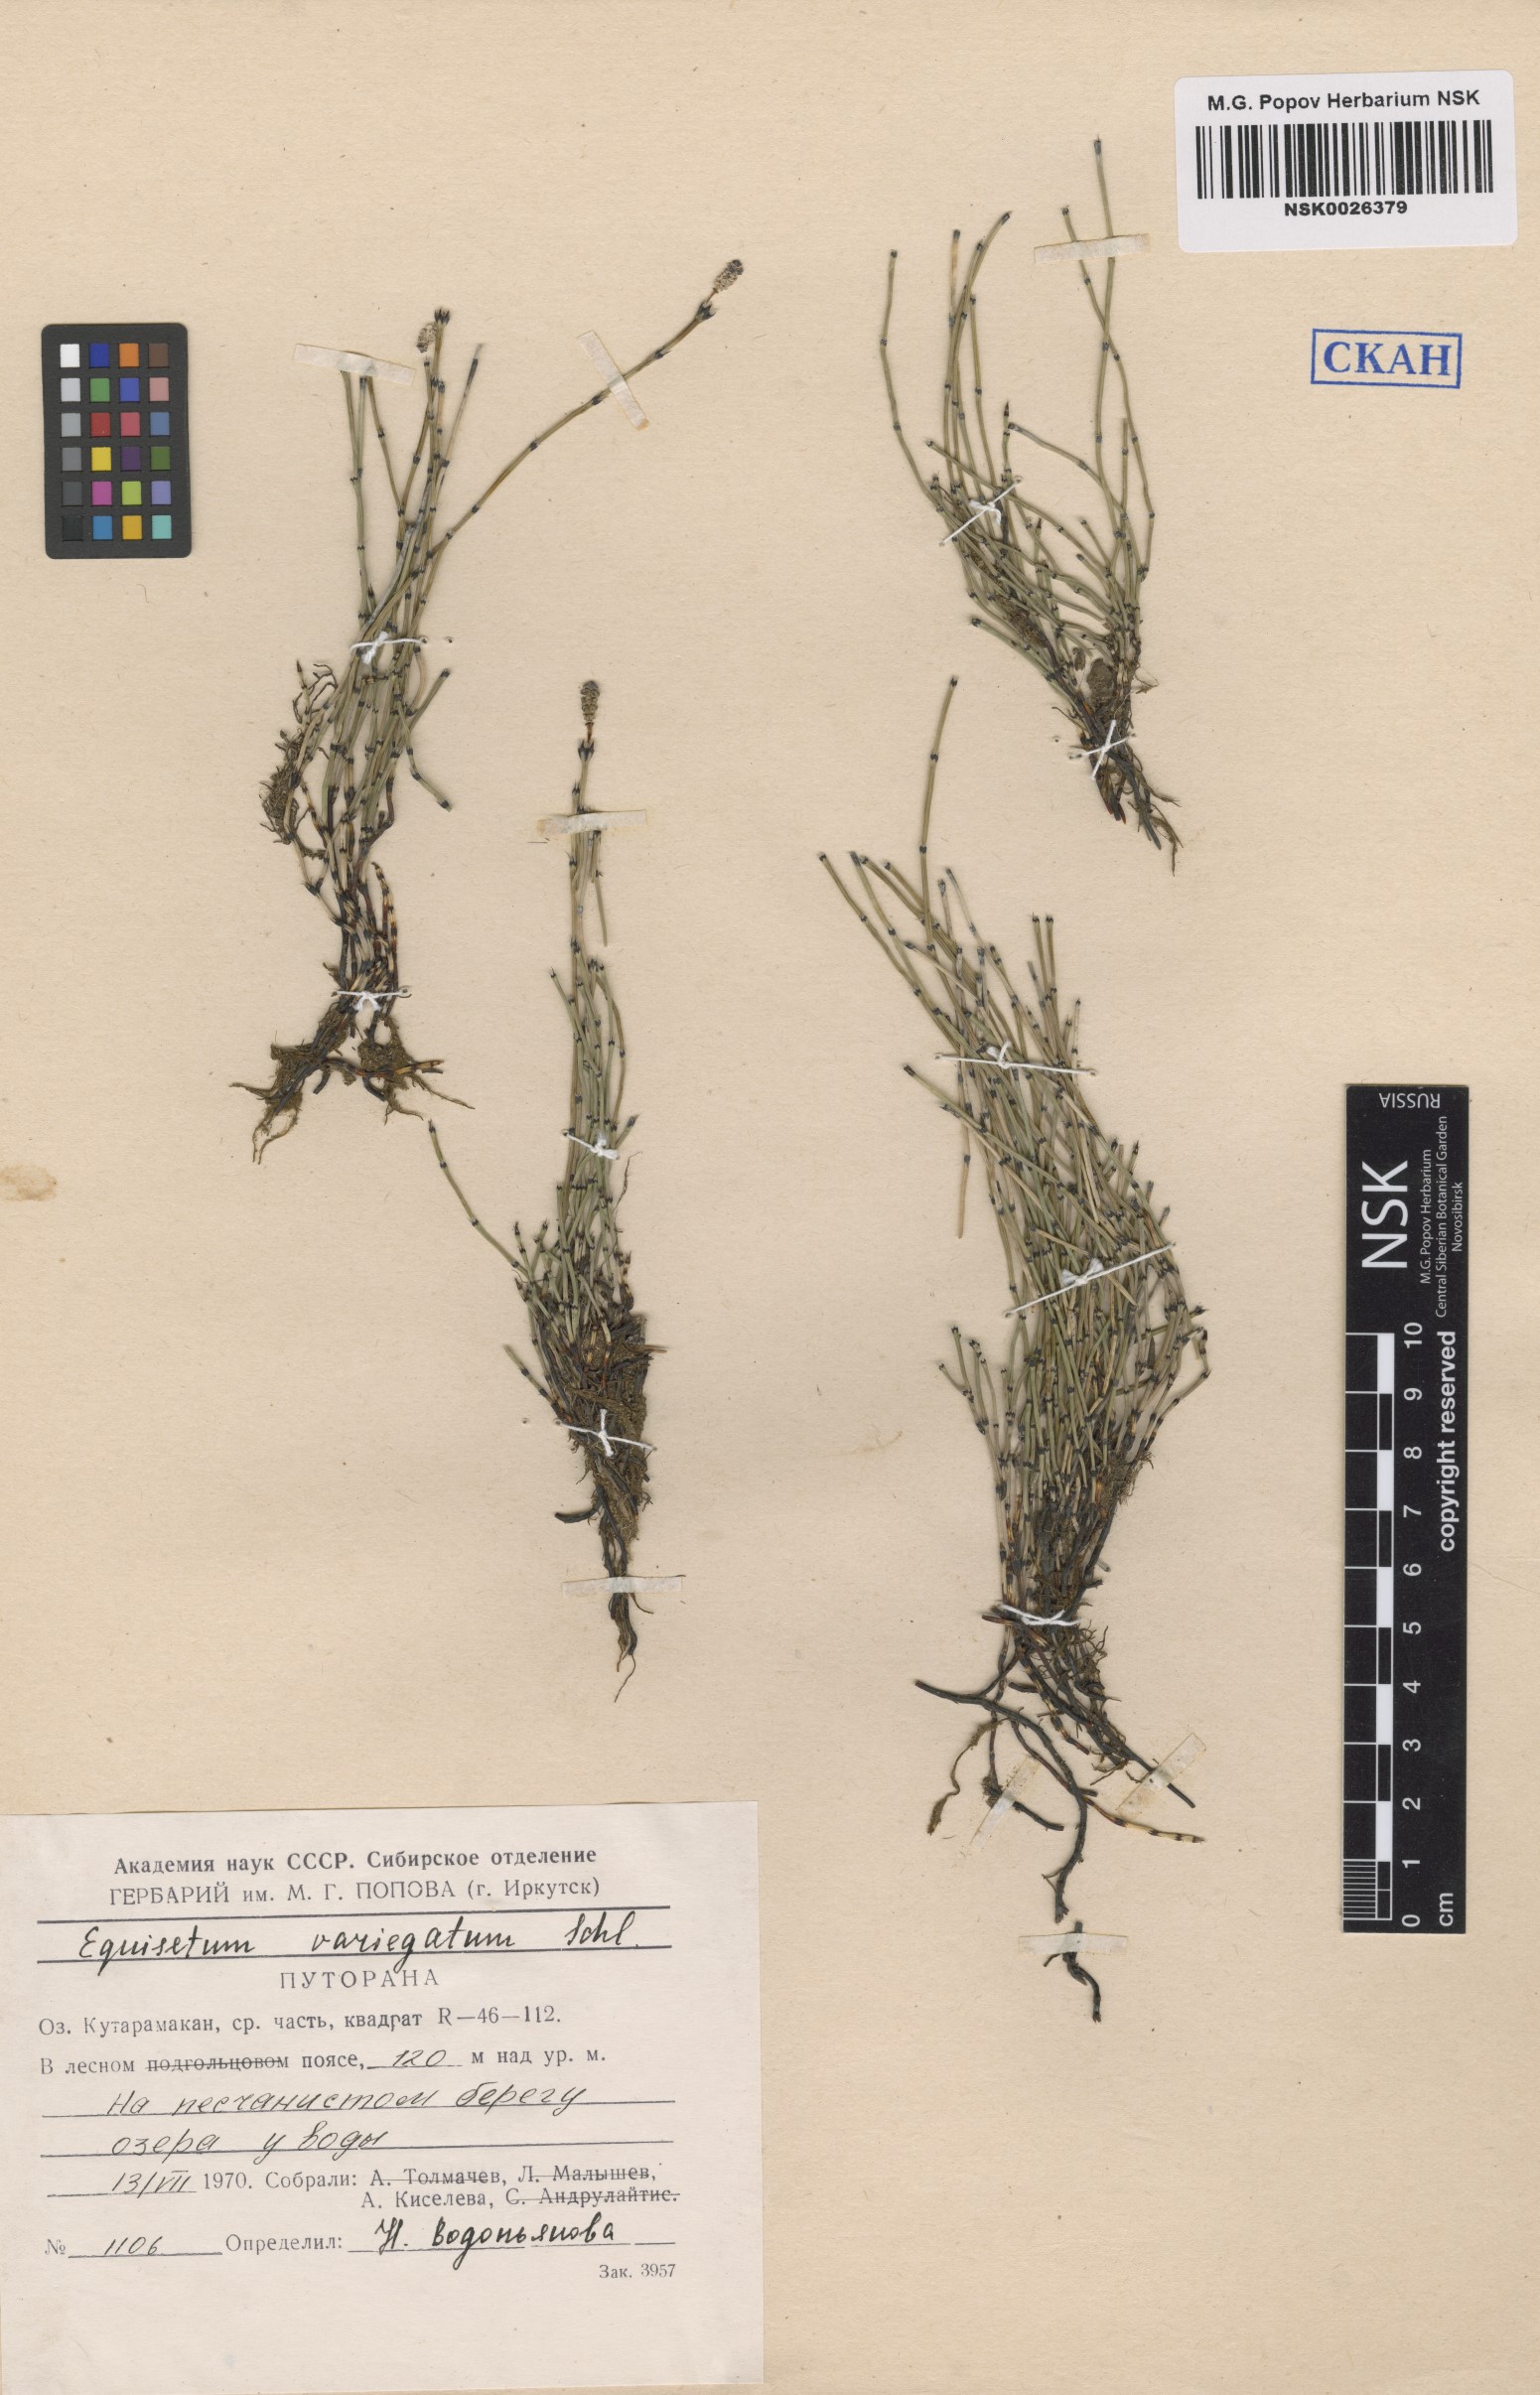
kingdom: Plantae
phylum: Tracheophyta
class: Polypodiopsida
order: Equisetales
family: Equisetaceae
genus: Equisetum
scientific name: Equisetum variegatum
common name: Variegated horsetail
